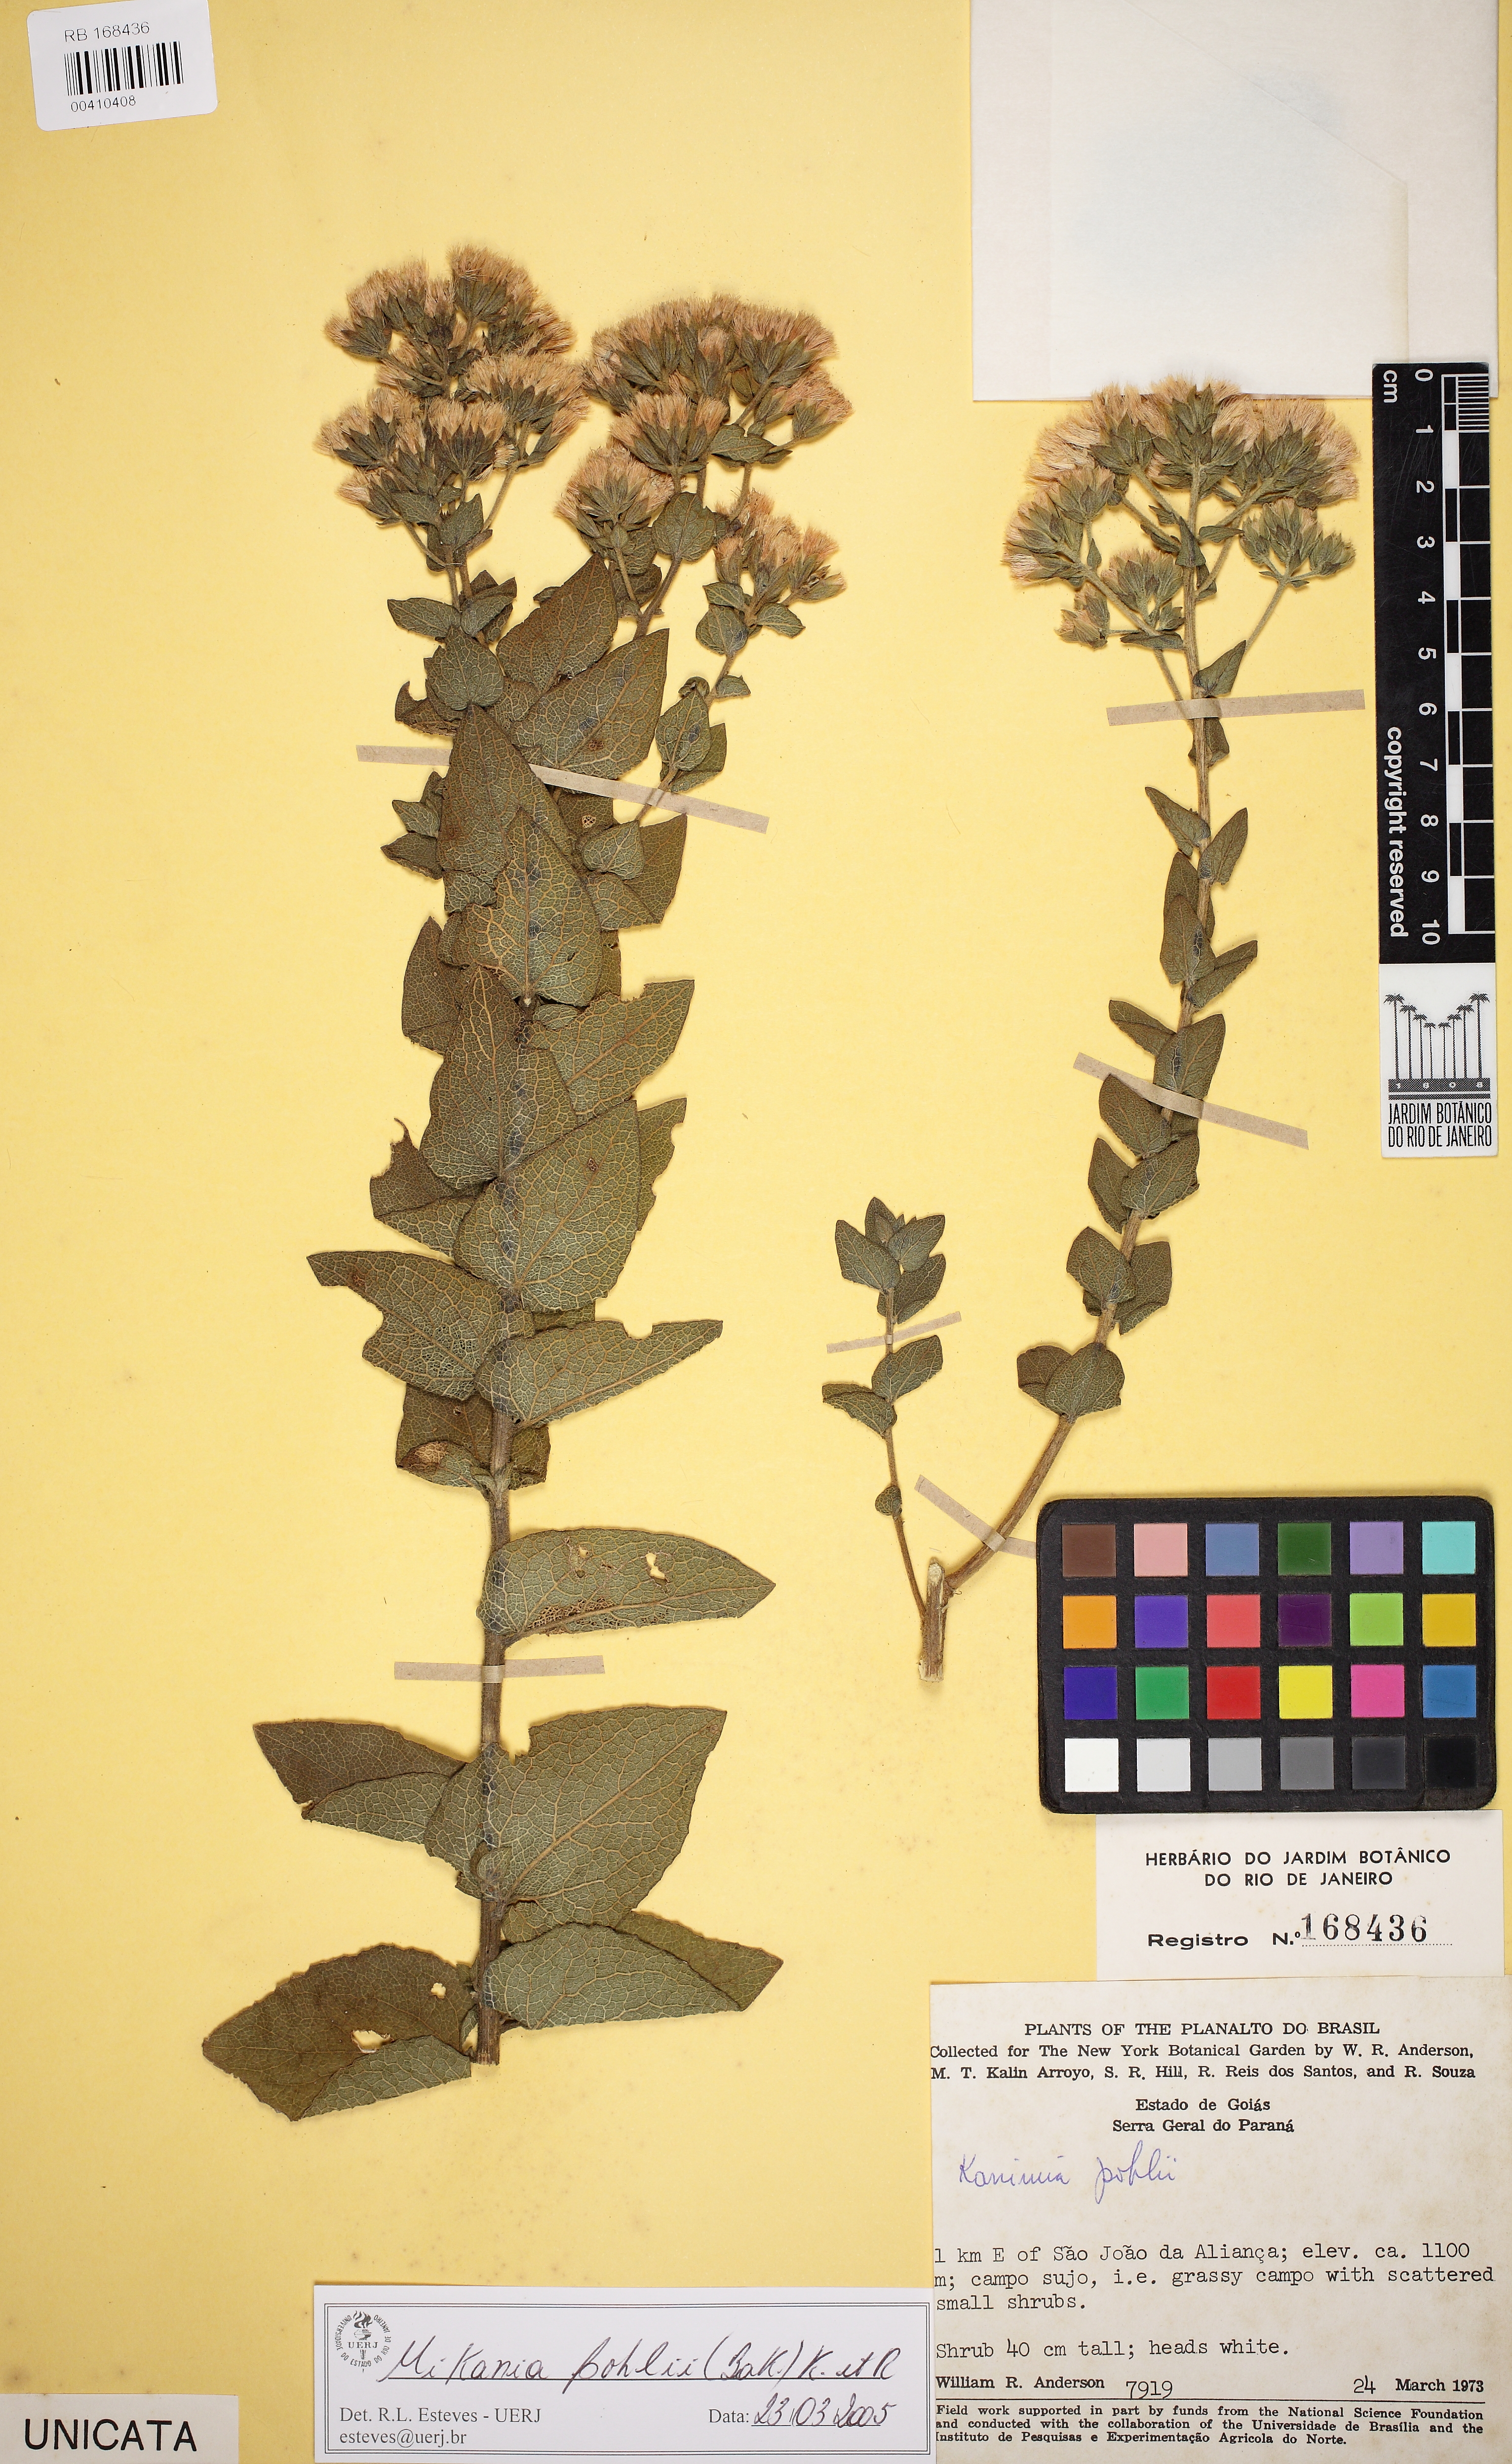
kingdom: Plantae
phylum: Tracheophyta
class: Magnoliopsida
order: Asterales
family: Asteraceae
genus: Mikania
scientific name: Mikania pohlii
